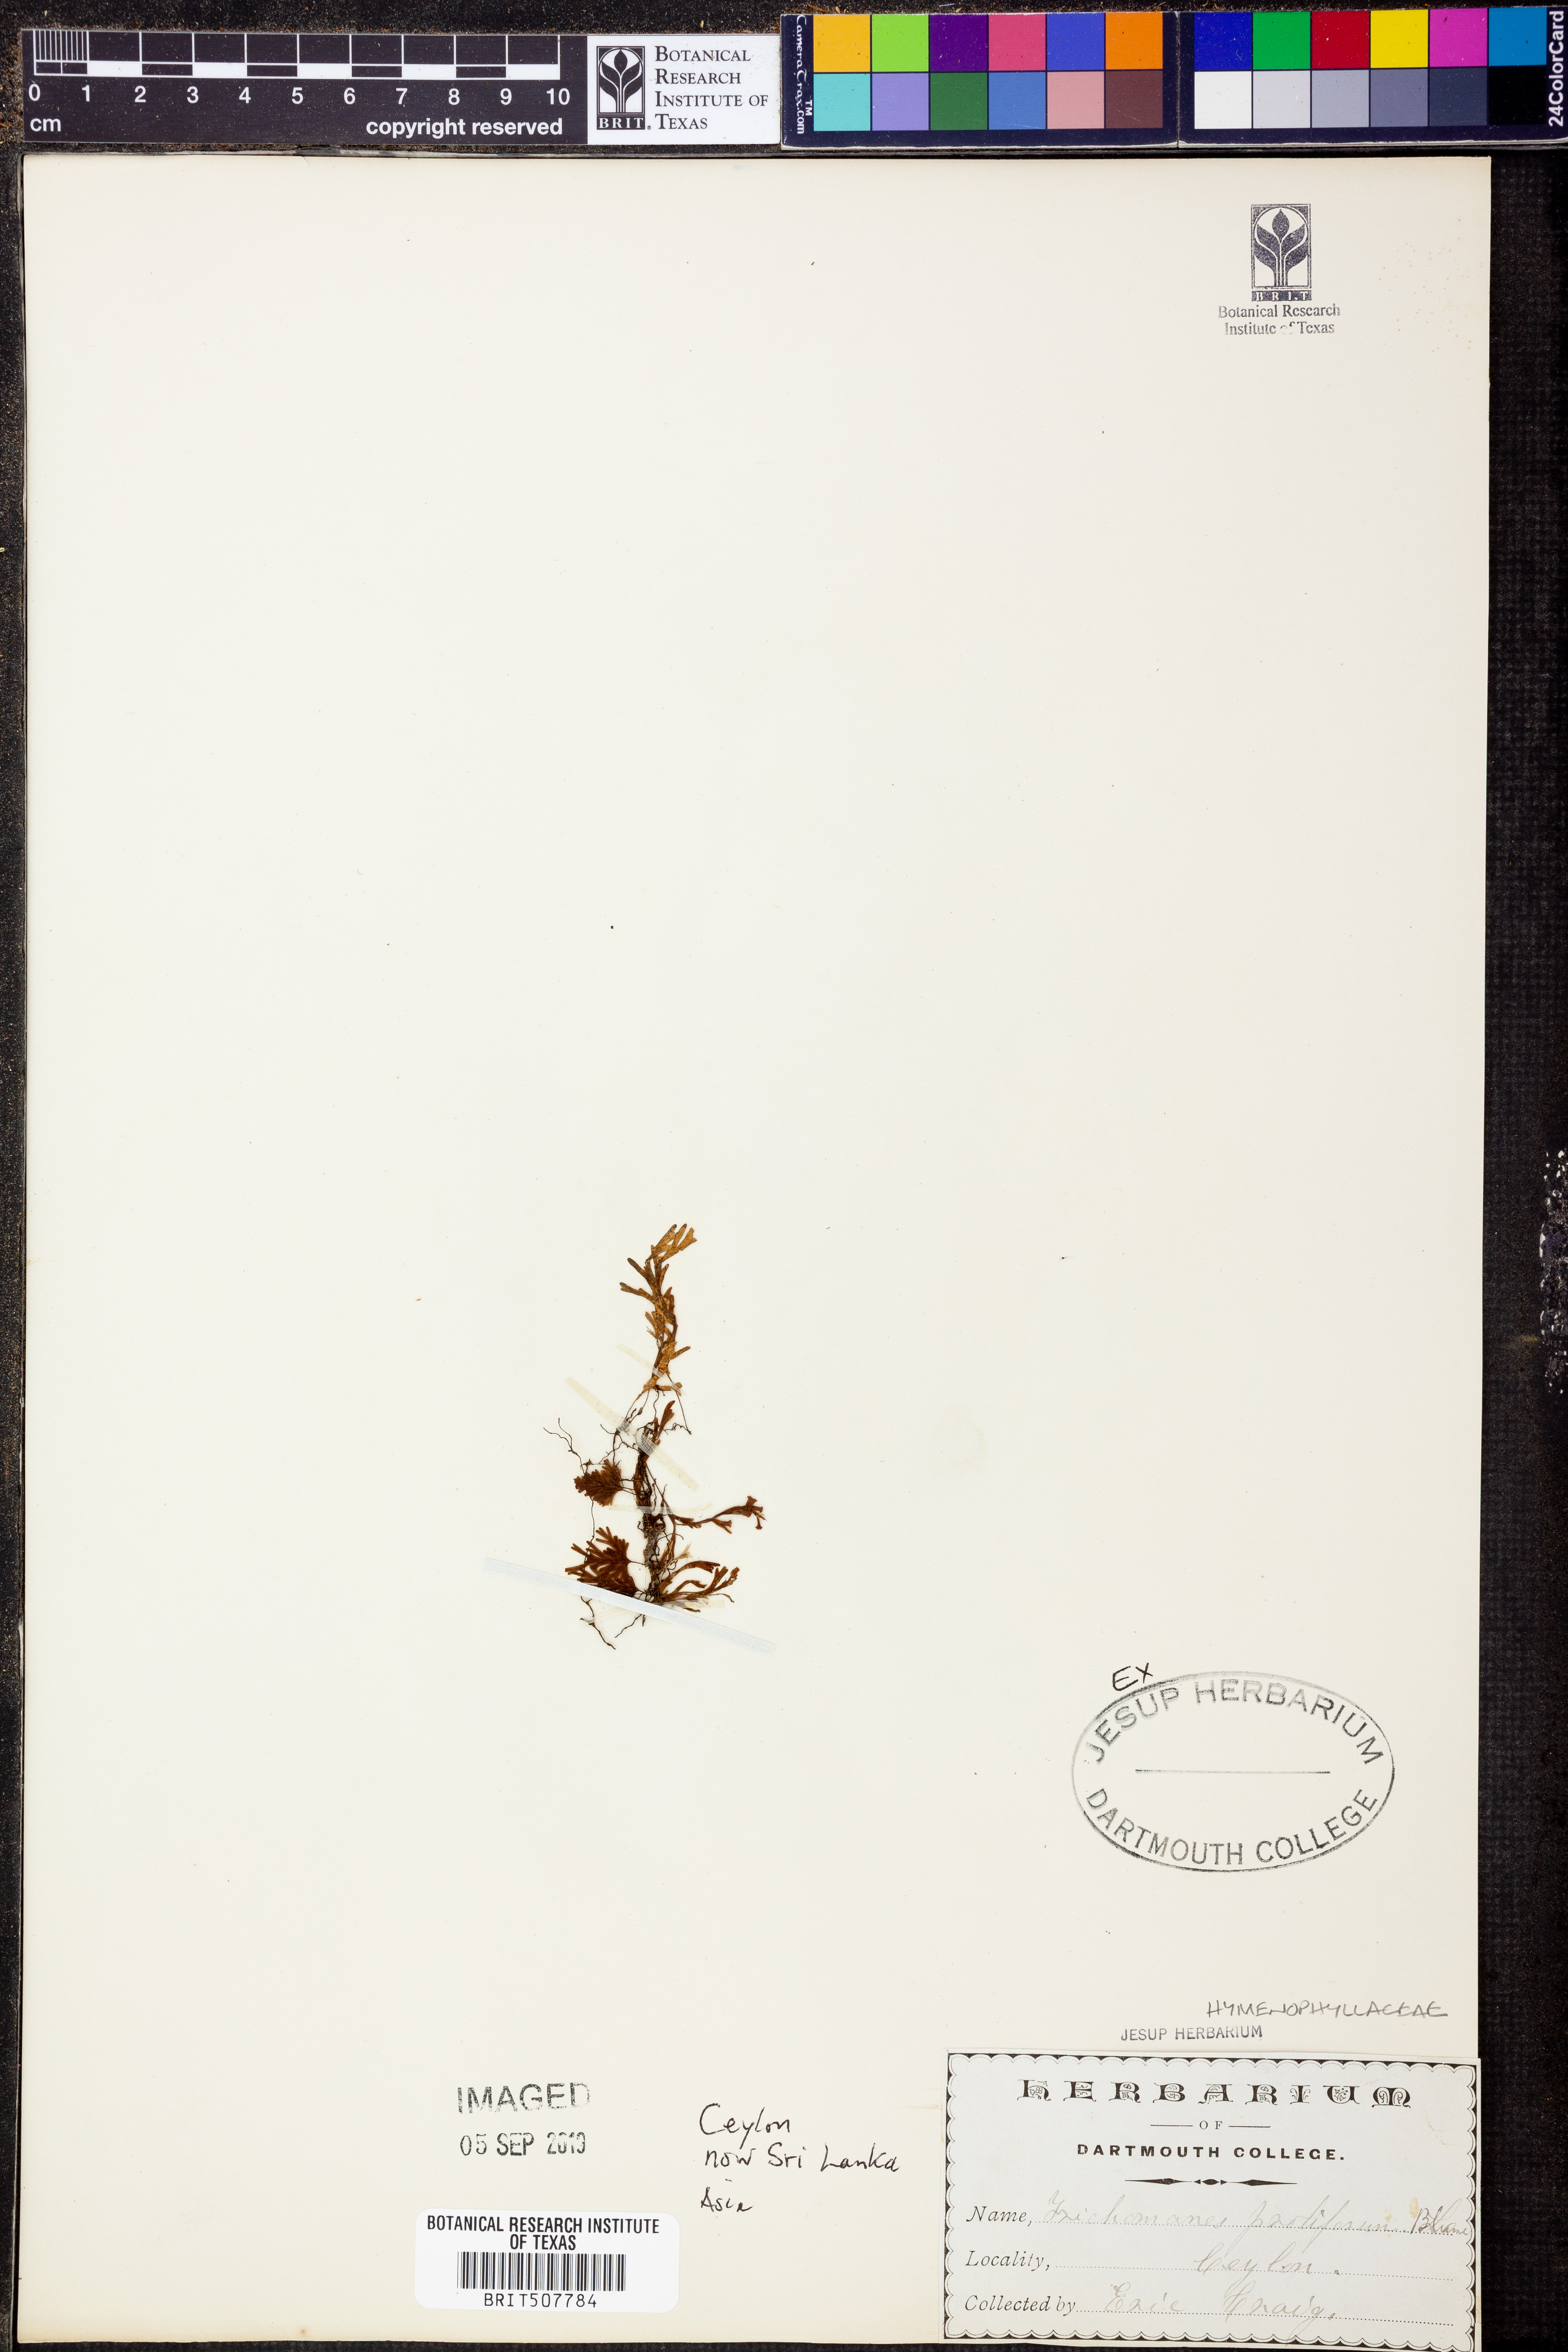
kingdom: Plantae
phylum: Tracheophyta
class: Polypodiopsida
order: Hymenophyllales
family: Hymenophyllaceae
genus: Crepidomanes
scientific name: Crepidomanes parvulum
